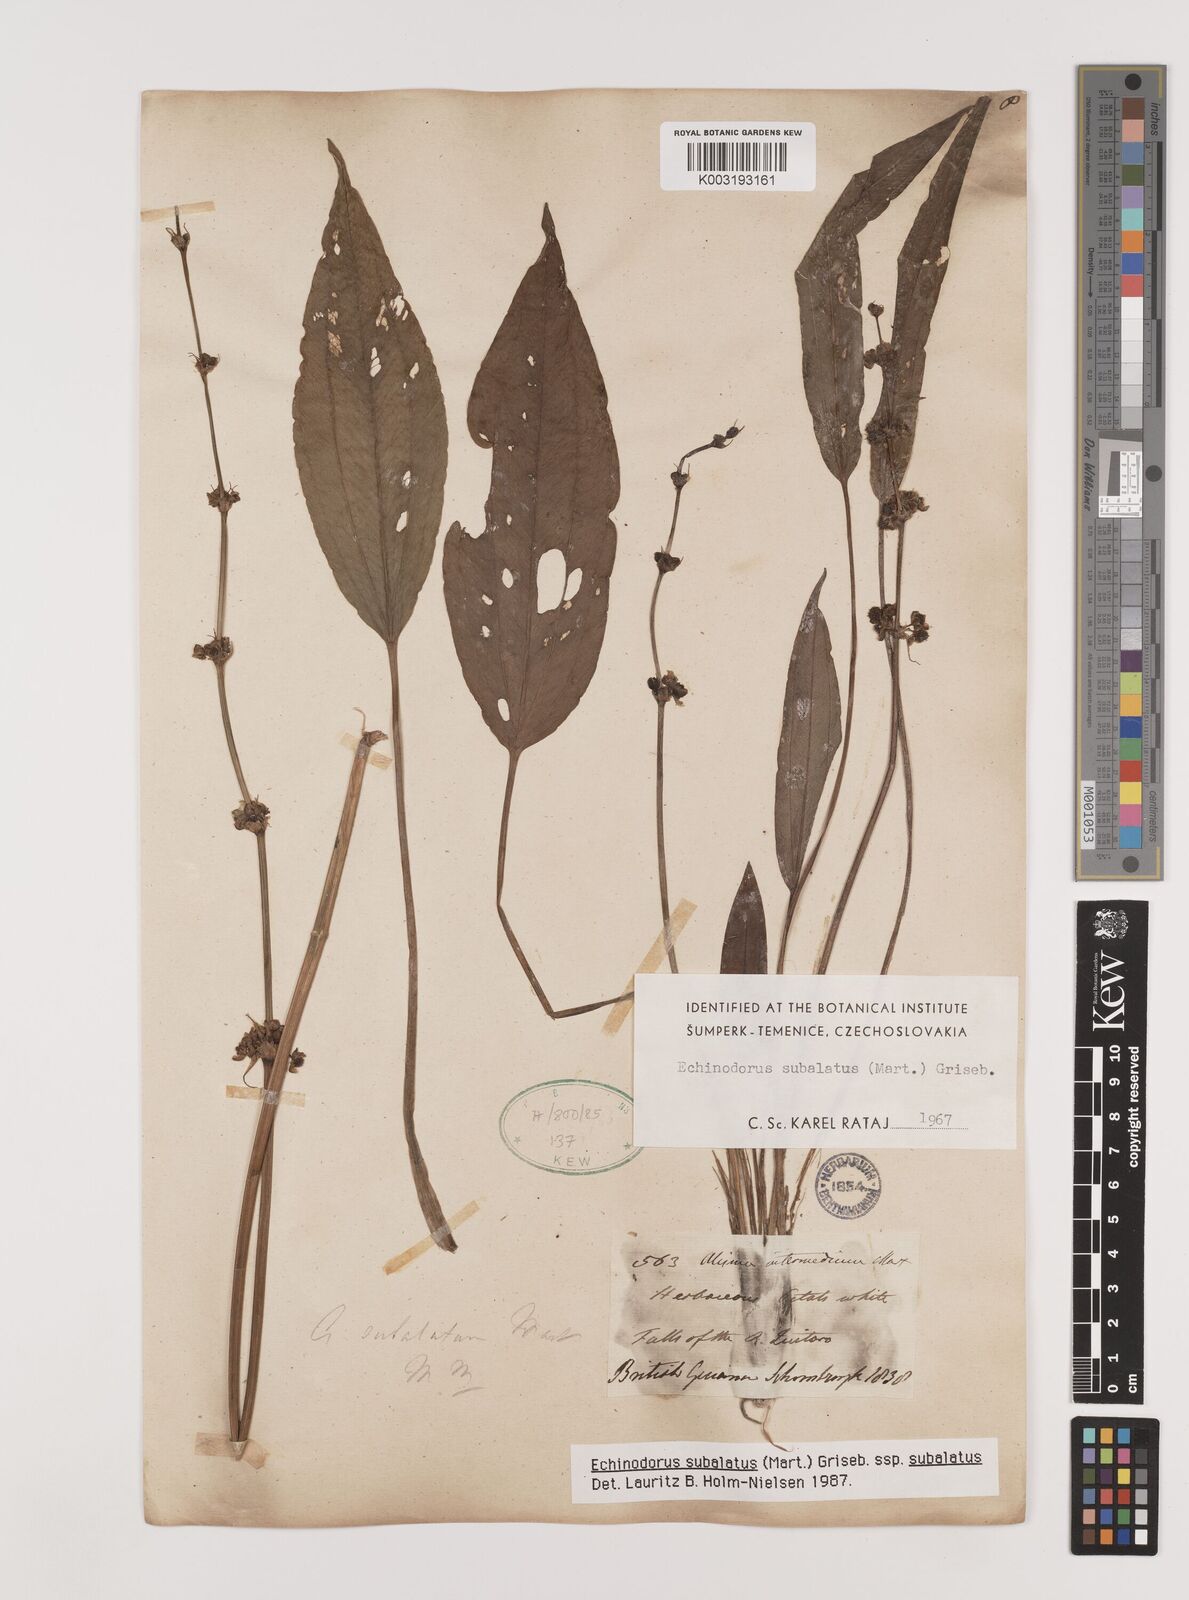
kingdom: Plantae
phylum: Tracheophyta
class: Liliopsida
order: Alismatales
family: Alismataceae
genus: Echinodorus
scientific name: Echinodorus
